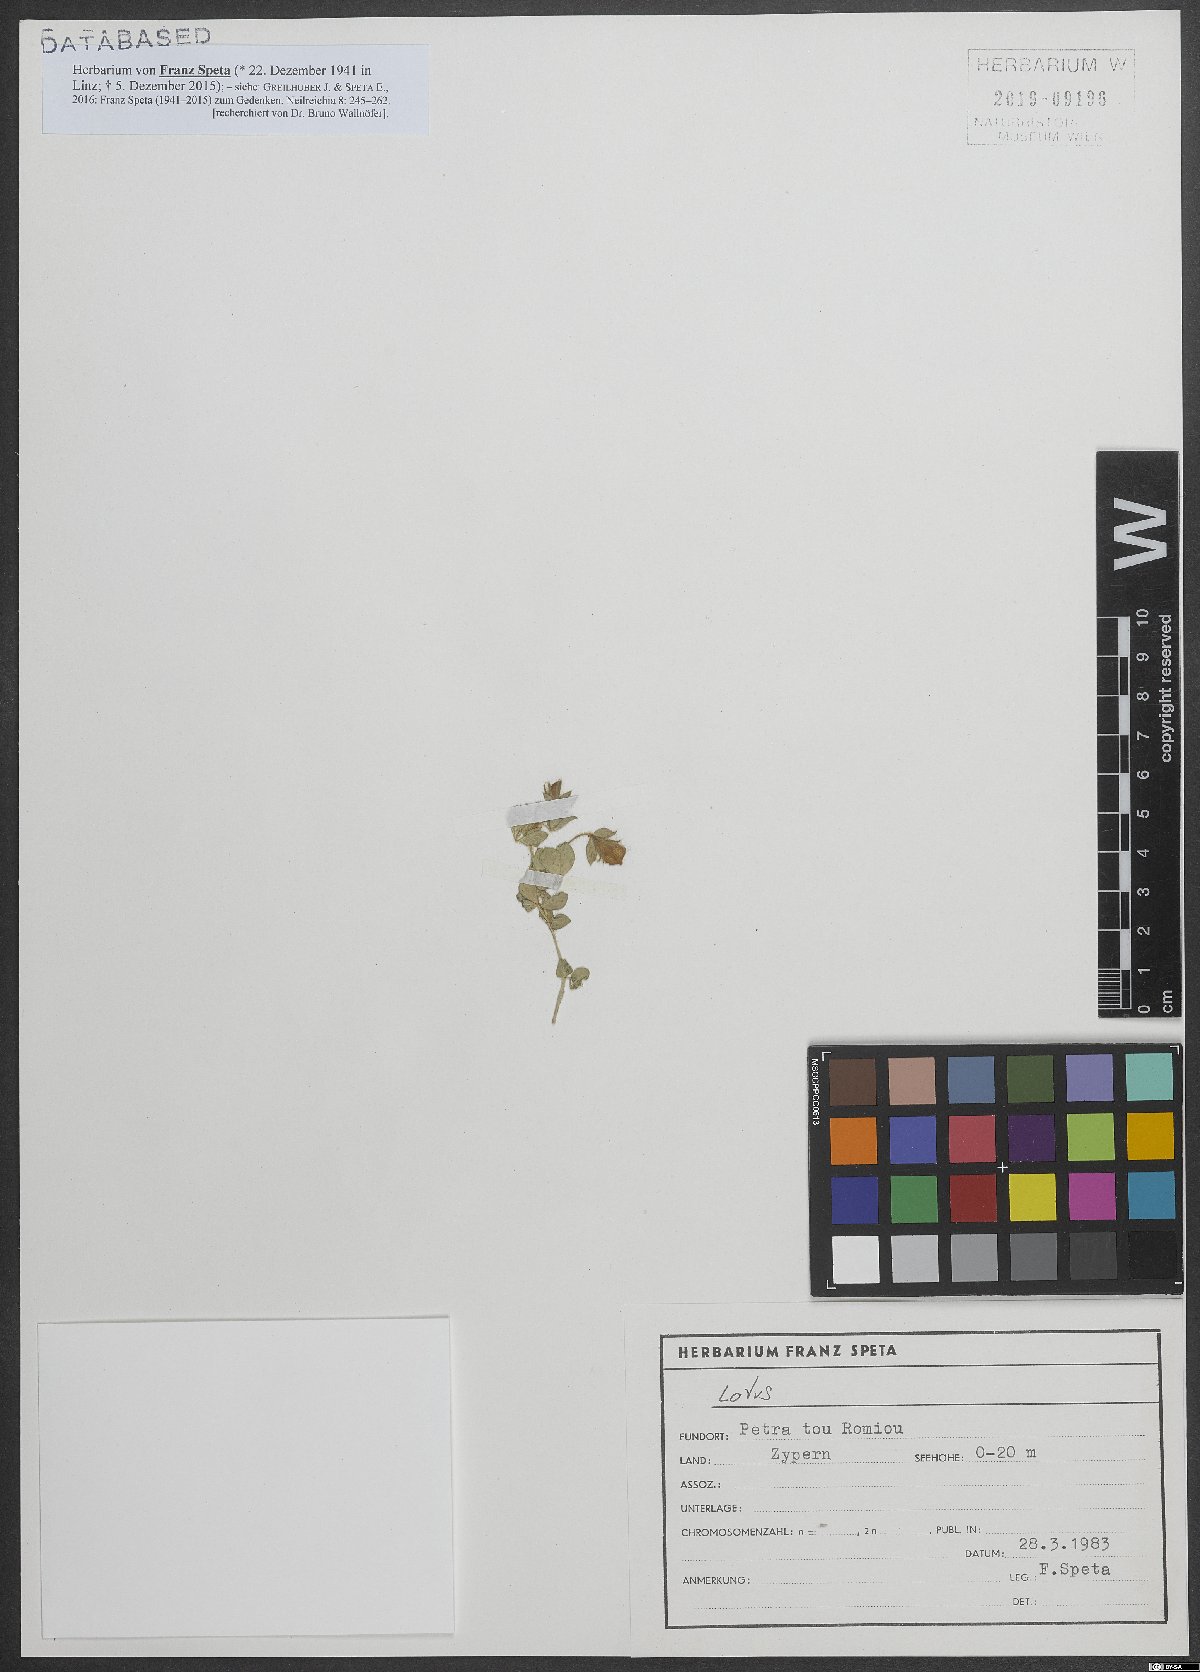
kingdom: Plantae
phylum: Tracheophyta
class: Magnoliopsida
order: Fabales
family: Fabaceae
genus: Lotus
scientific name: Lotus
